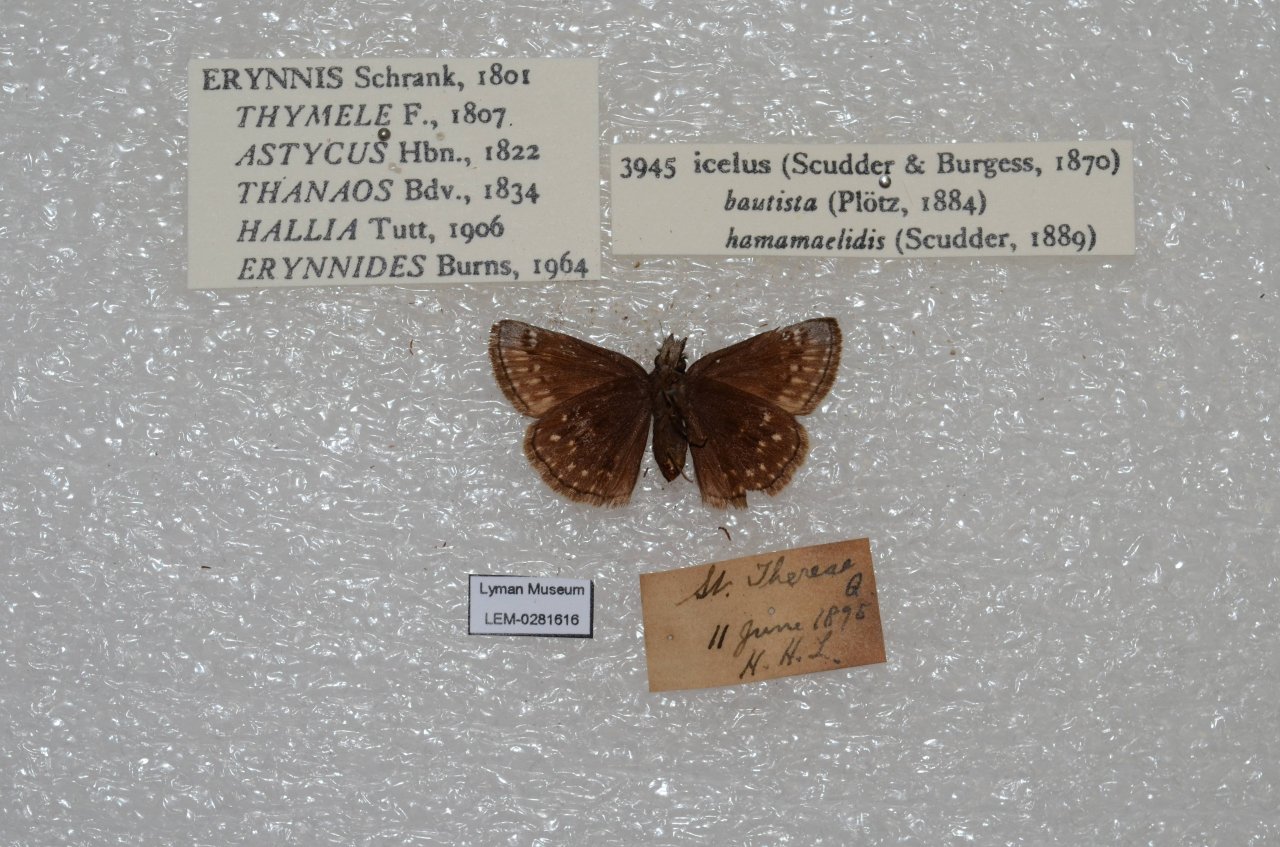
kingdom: Animalia
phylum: Arthropoda
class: Insecta
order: Lepidoptera
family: Hesperiidae
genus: Erynnis
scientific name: Erynnis icelus
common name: Dreamy Duskywing
